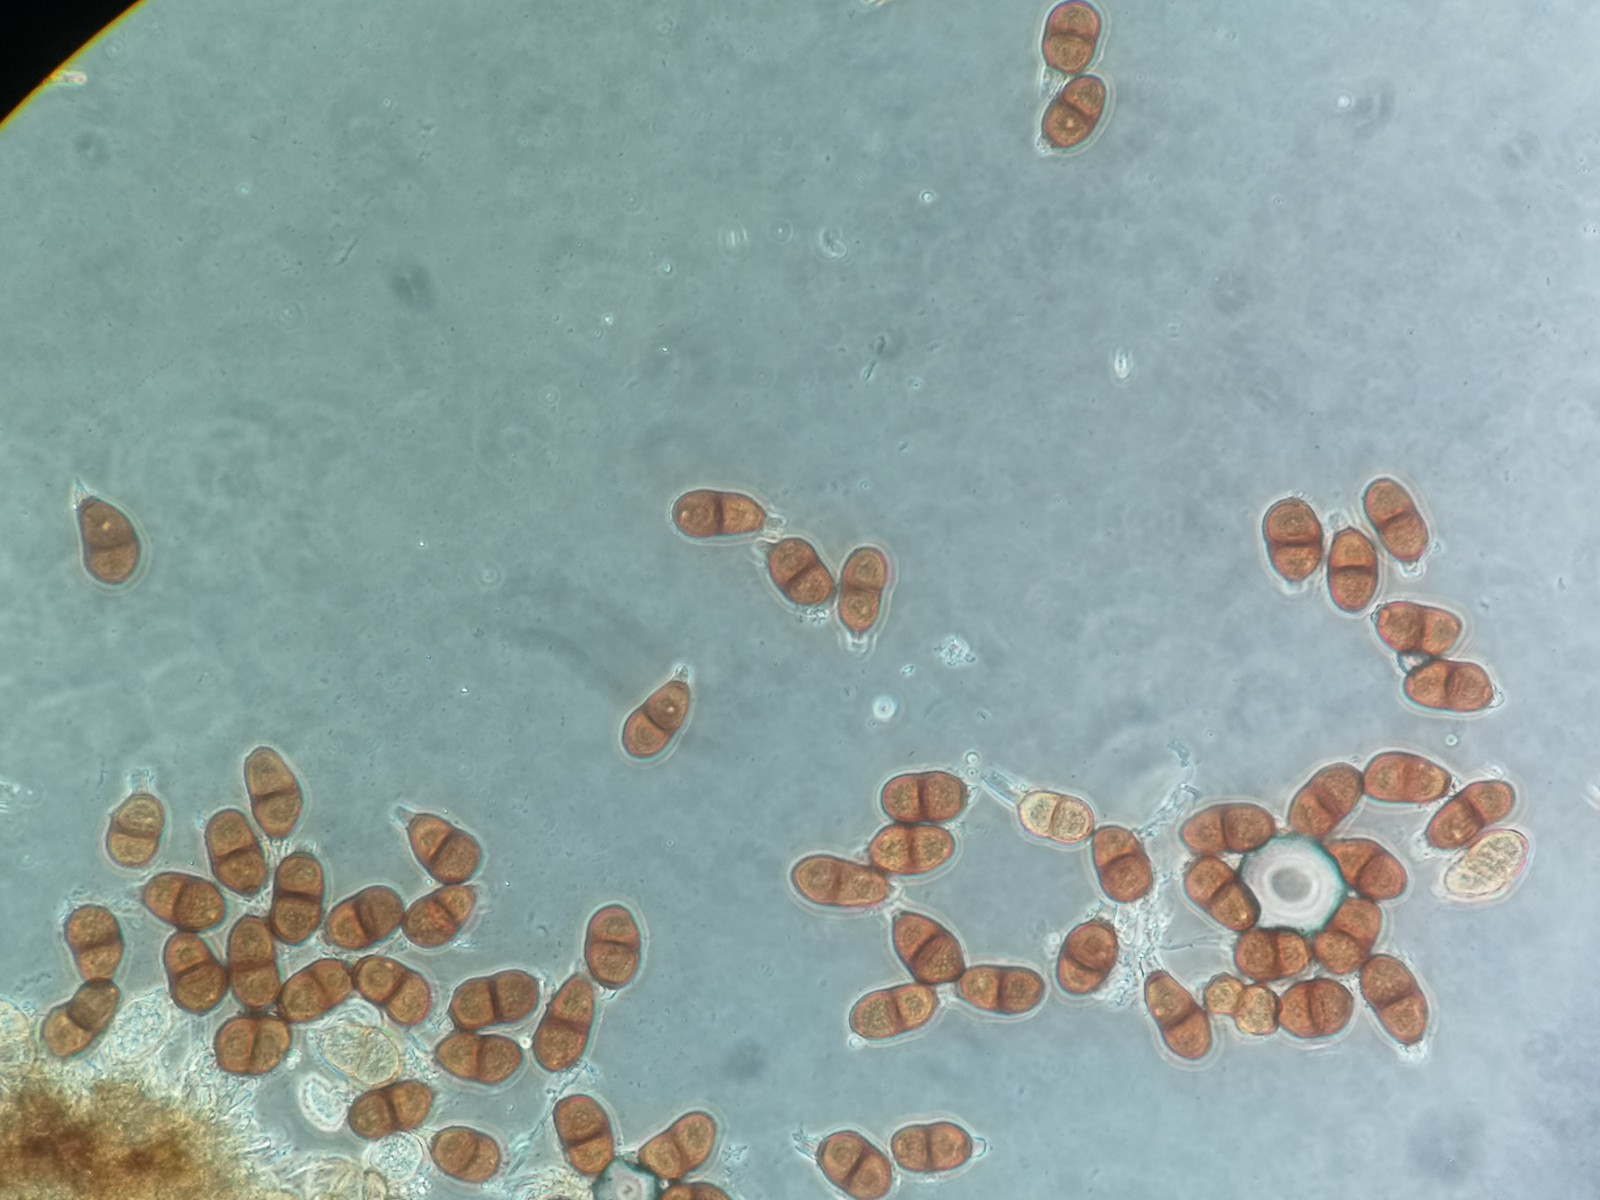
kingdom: Fungi
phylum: Basidiomycota
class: Pucciniomycetes
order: Pucciniales
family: Pucciniaceae
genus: Puccinia
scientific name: Puccinia laschii
